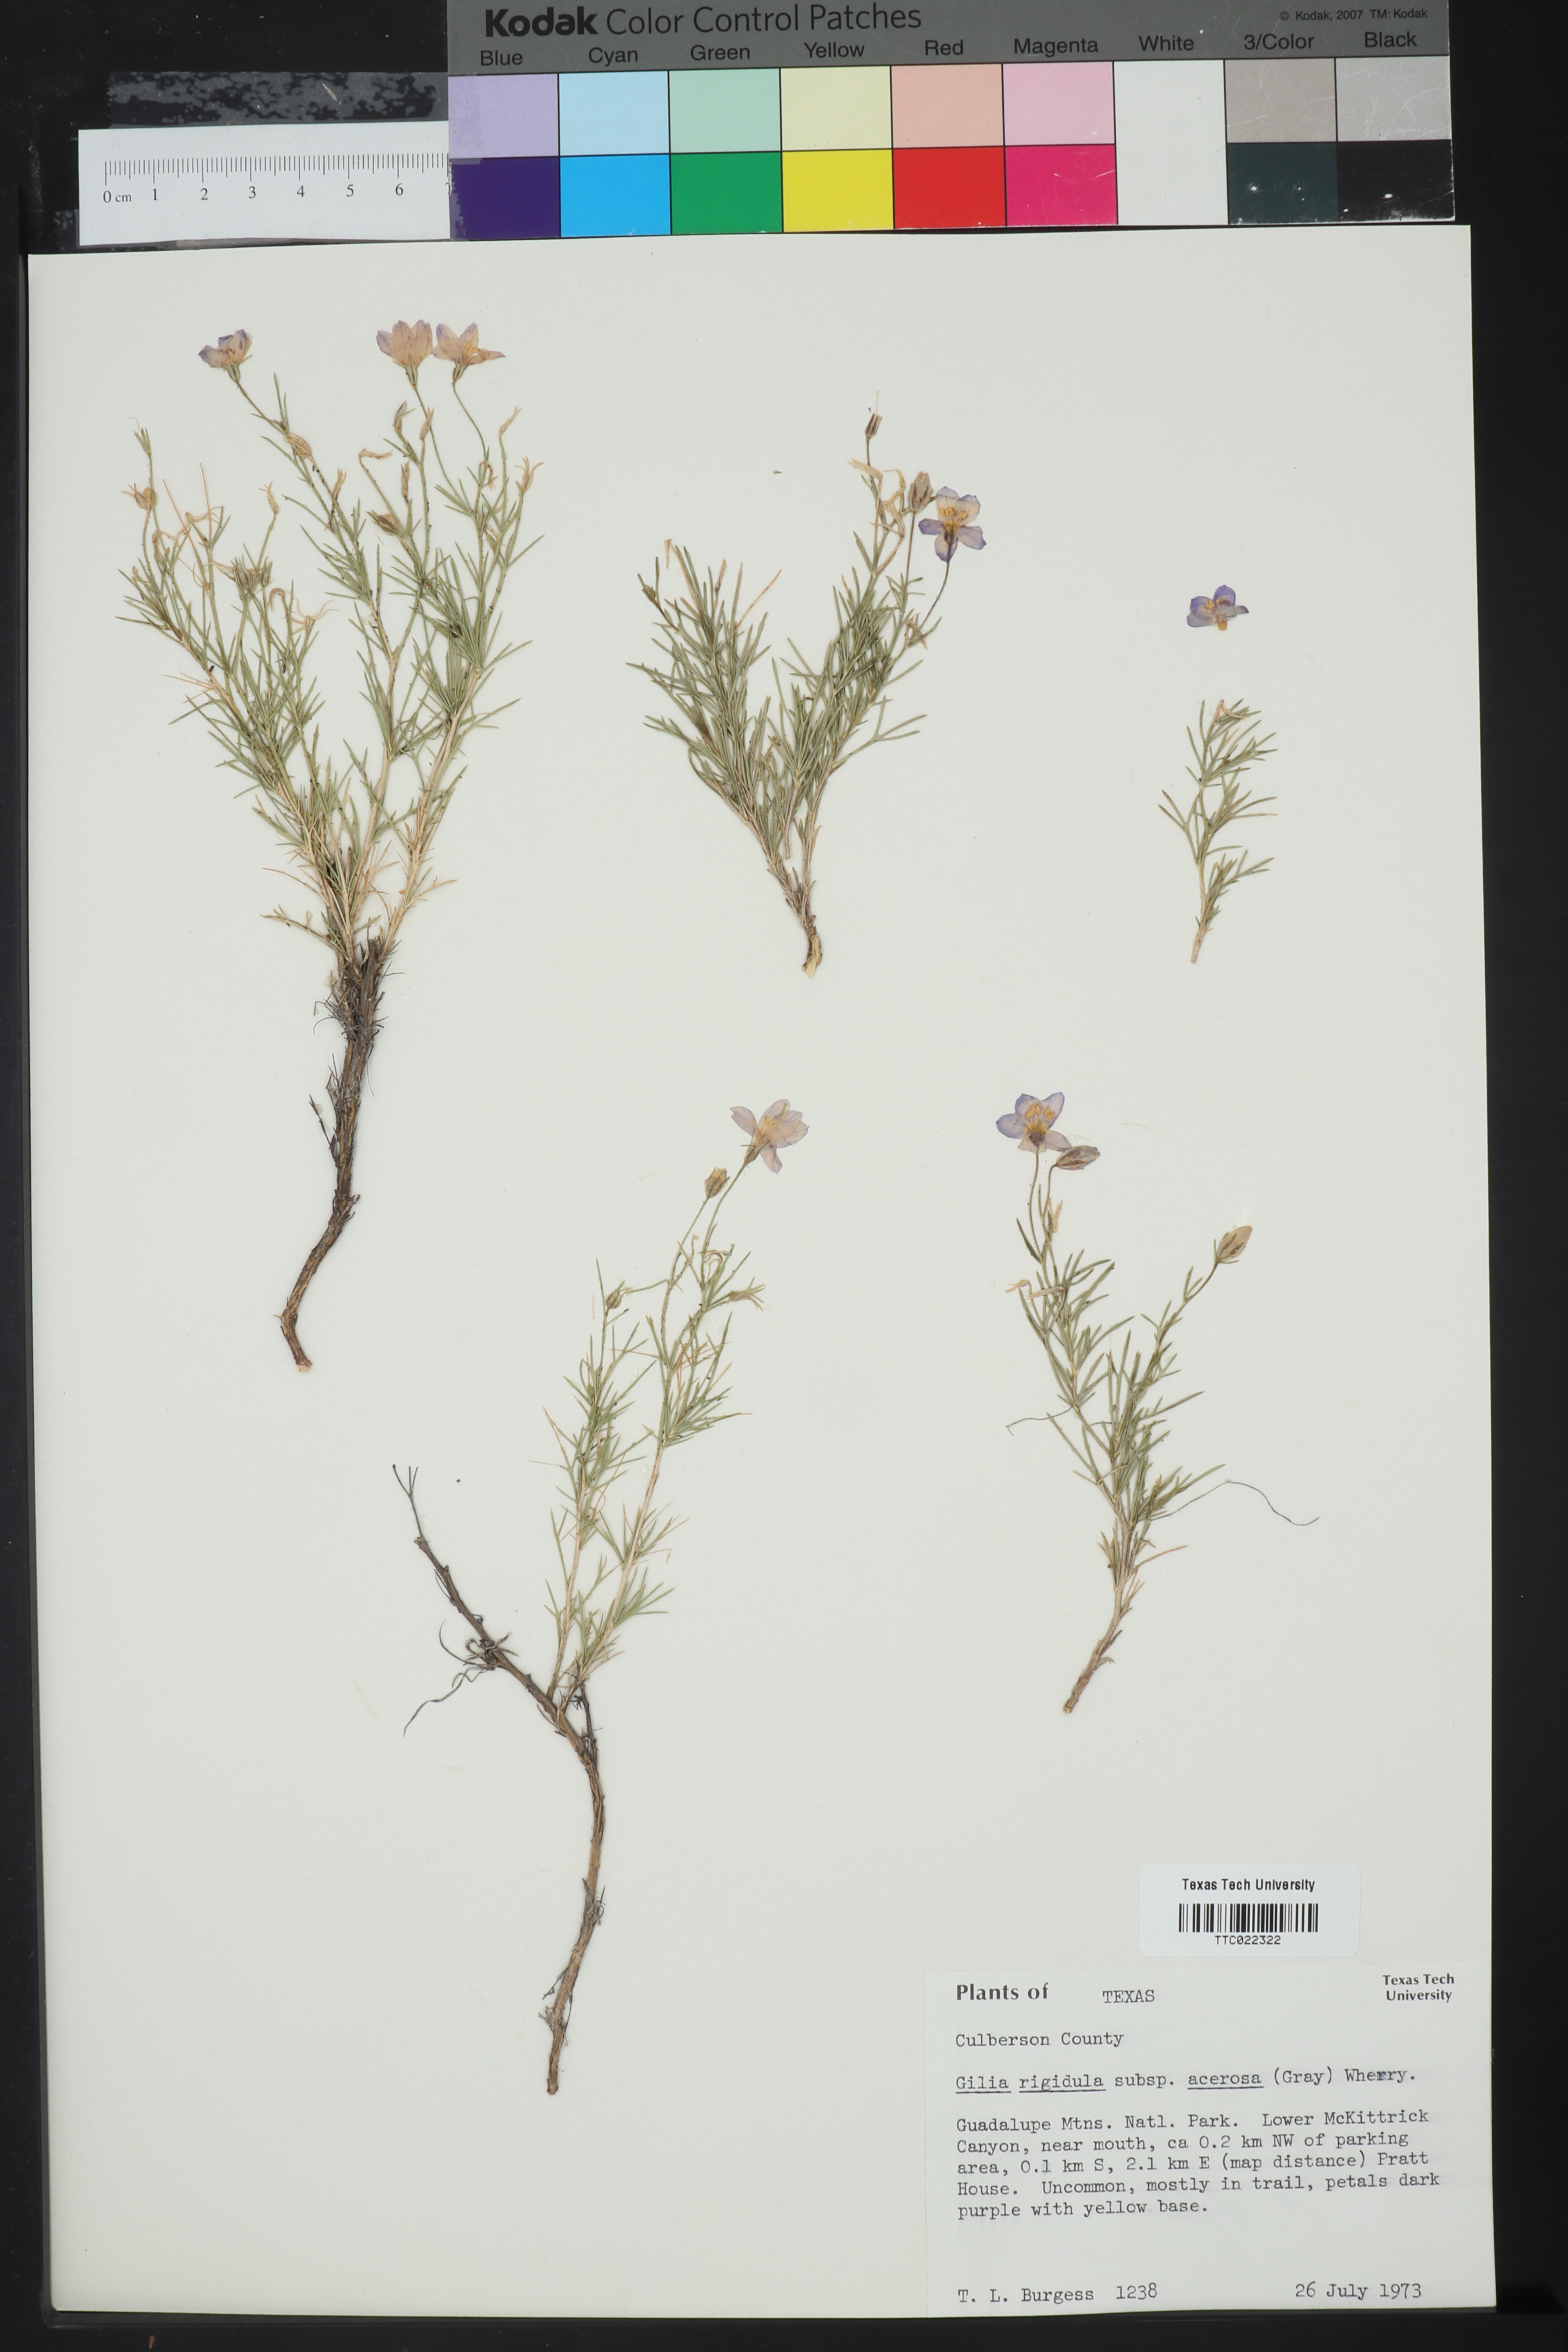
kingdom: Plantae
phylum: Tracheophyta
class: Magnoliopsida
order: Ericales
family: Polemoniaceae
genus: Giliastrum
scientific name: Giliastrum acerosum
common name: Bluebowls
